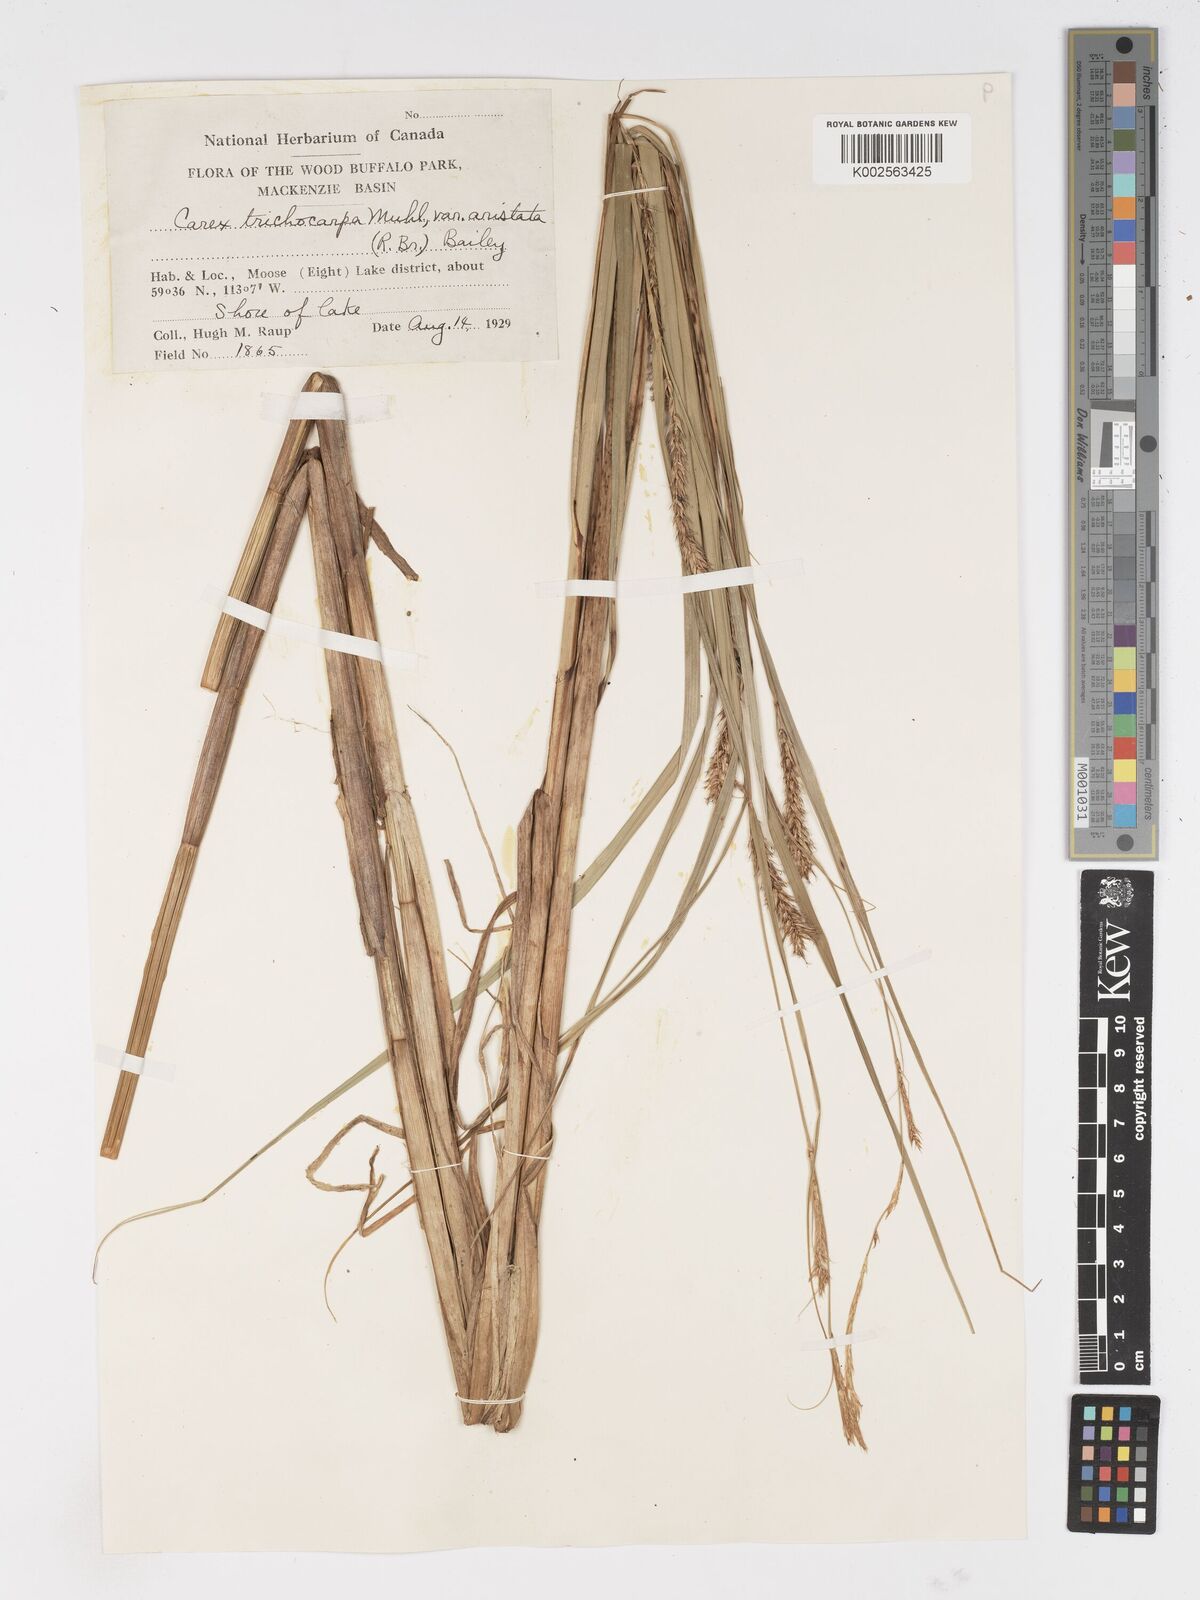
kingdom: Plantae
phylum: Tracheophyta
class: Liliopsida
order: Poales
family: Cyperaceae
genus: Carex
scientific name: Carex trichocarpa
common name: Hairy-fruited lake sedge
